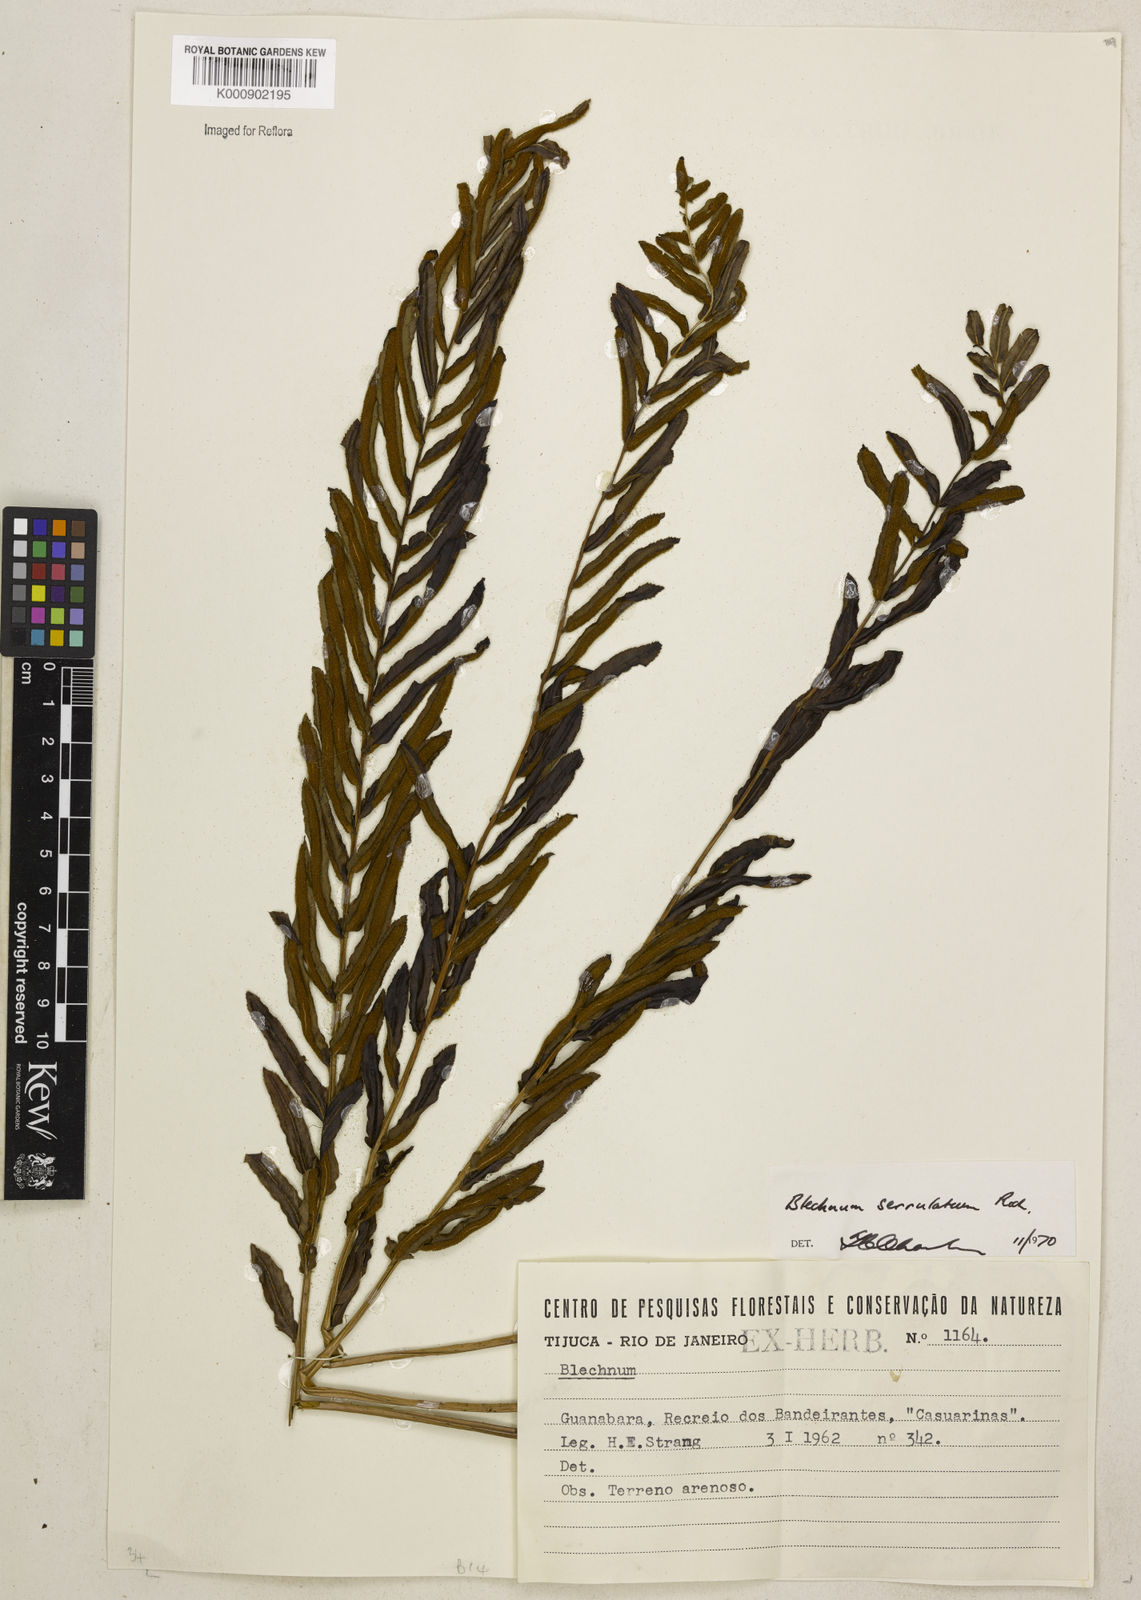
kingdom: Plantae
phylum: Tracheophyta
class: Polypodiopsida
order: Polypodiales
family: Blechnaceae
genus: Telmatoblechnum
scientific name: Telmatoblechnum serrulatum
